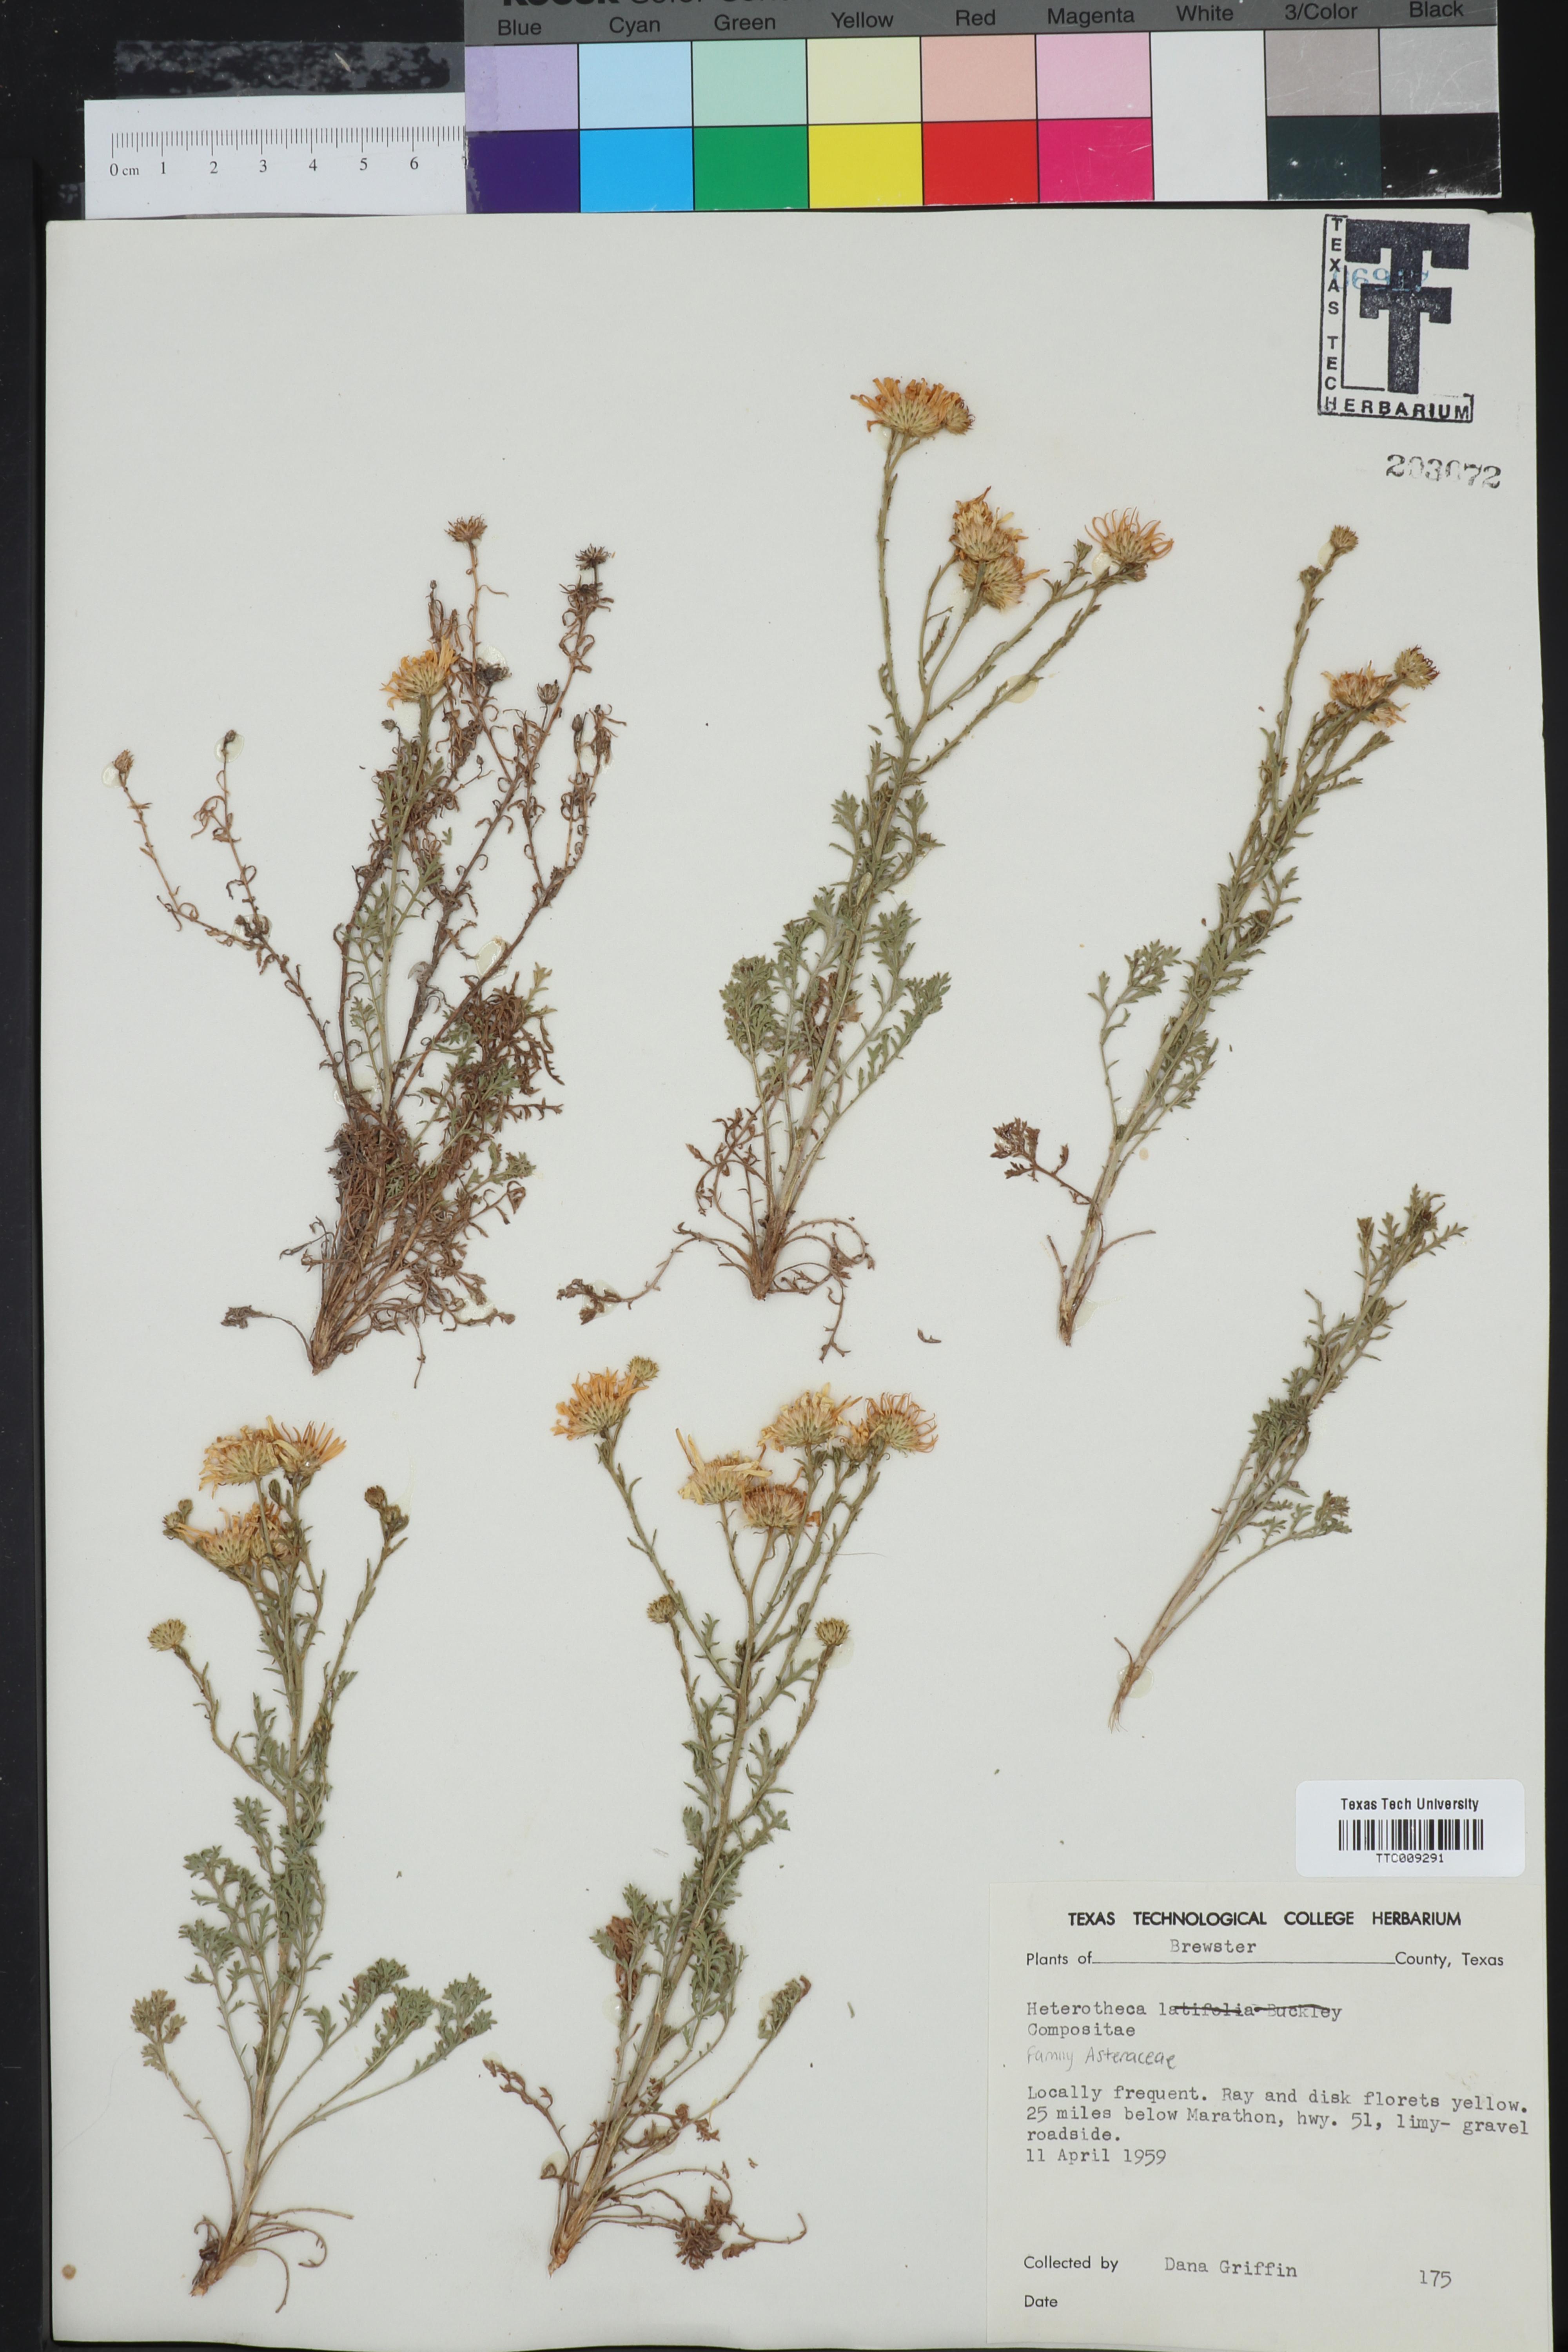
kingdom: Plantae
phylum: Tracheophyta
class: Magnoliopsida
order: Asterales
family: Asteraceae
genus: Heterotheca
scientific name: Heterotheca subaxillaris
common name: Camphorweed
